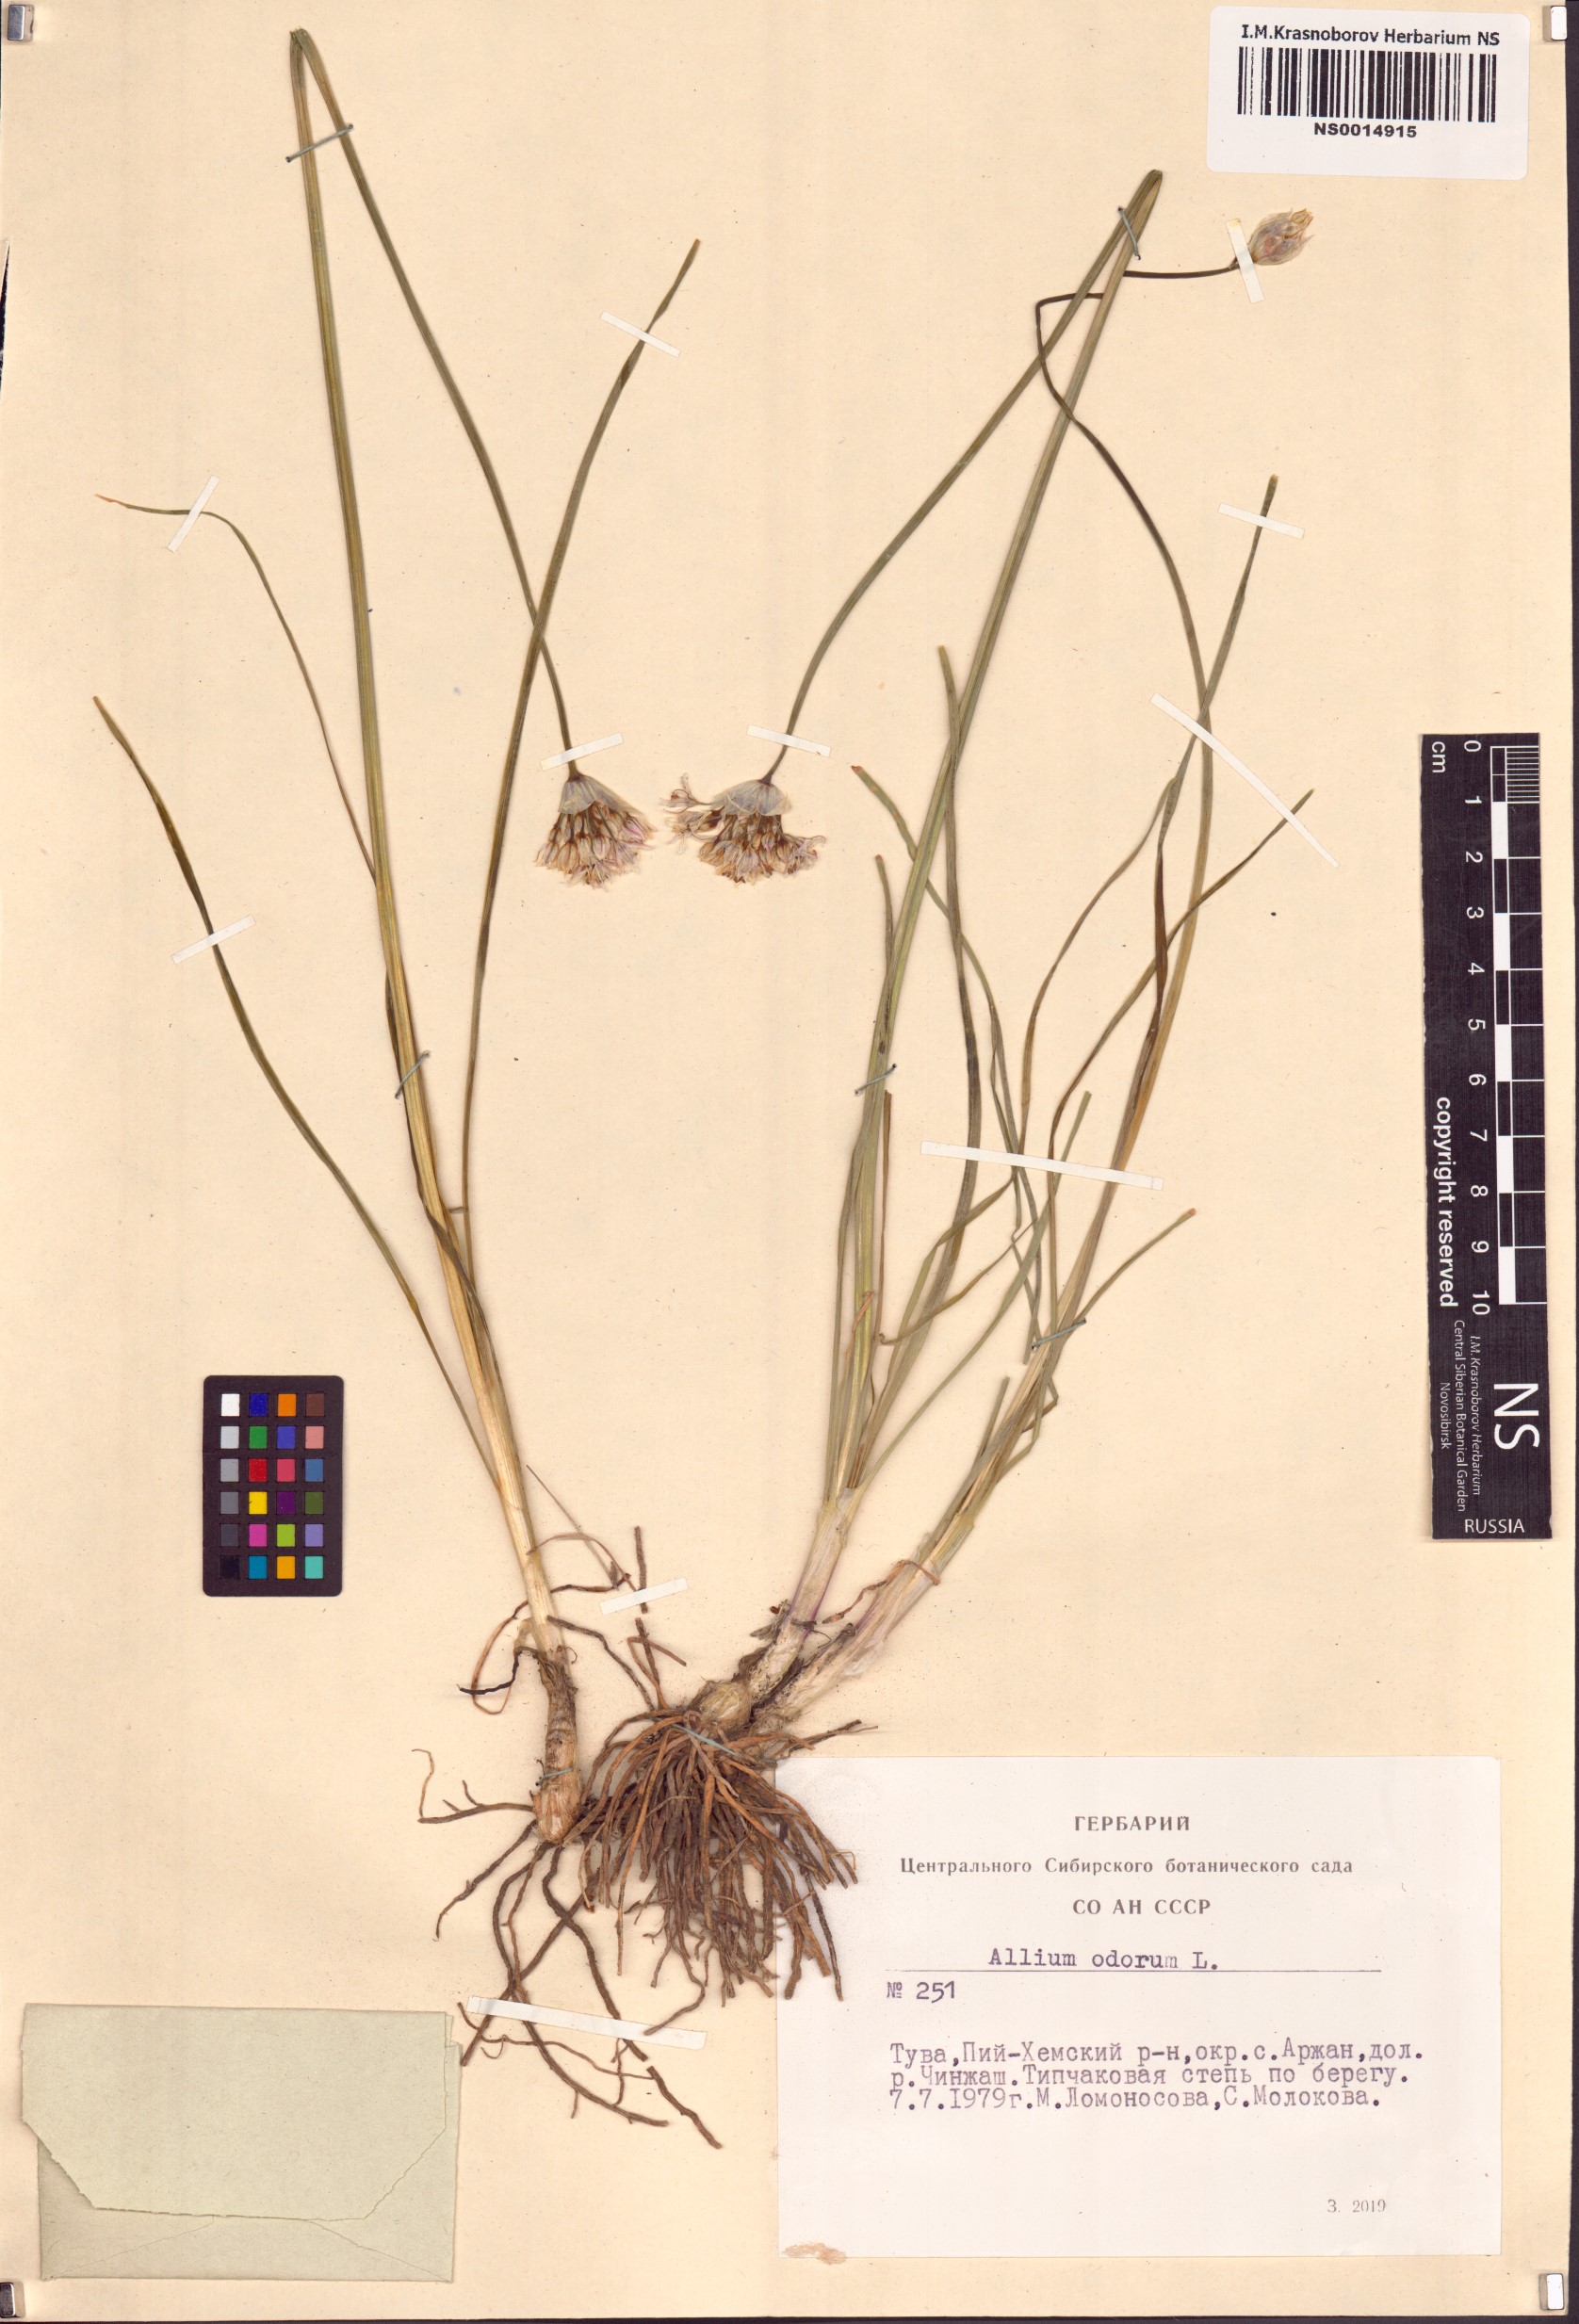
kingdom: Plantae
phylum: Tracheophyta
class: Liliopsida
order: Asparagales
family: Amaryllidaceae
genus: Allium
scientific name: Allium ramosum
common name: Fragrant garlic
